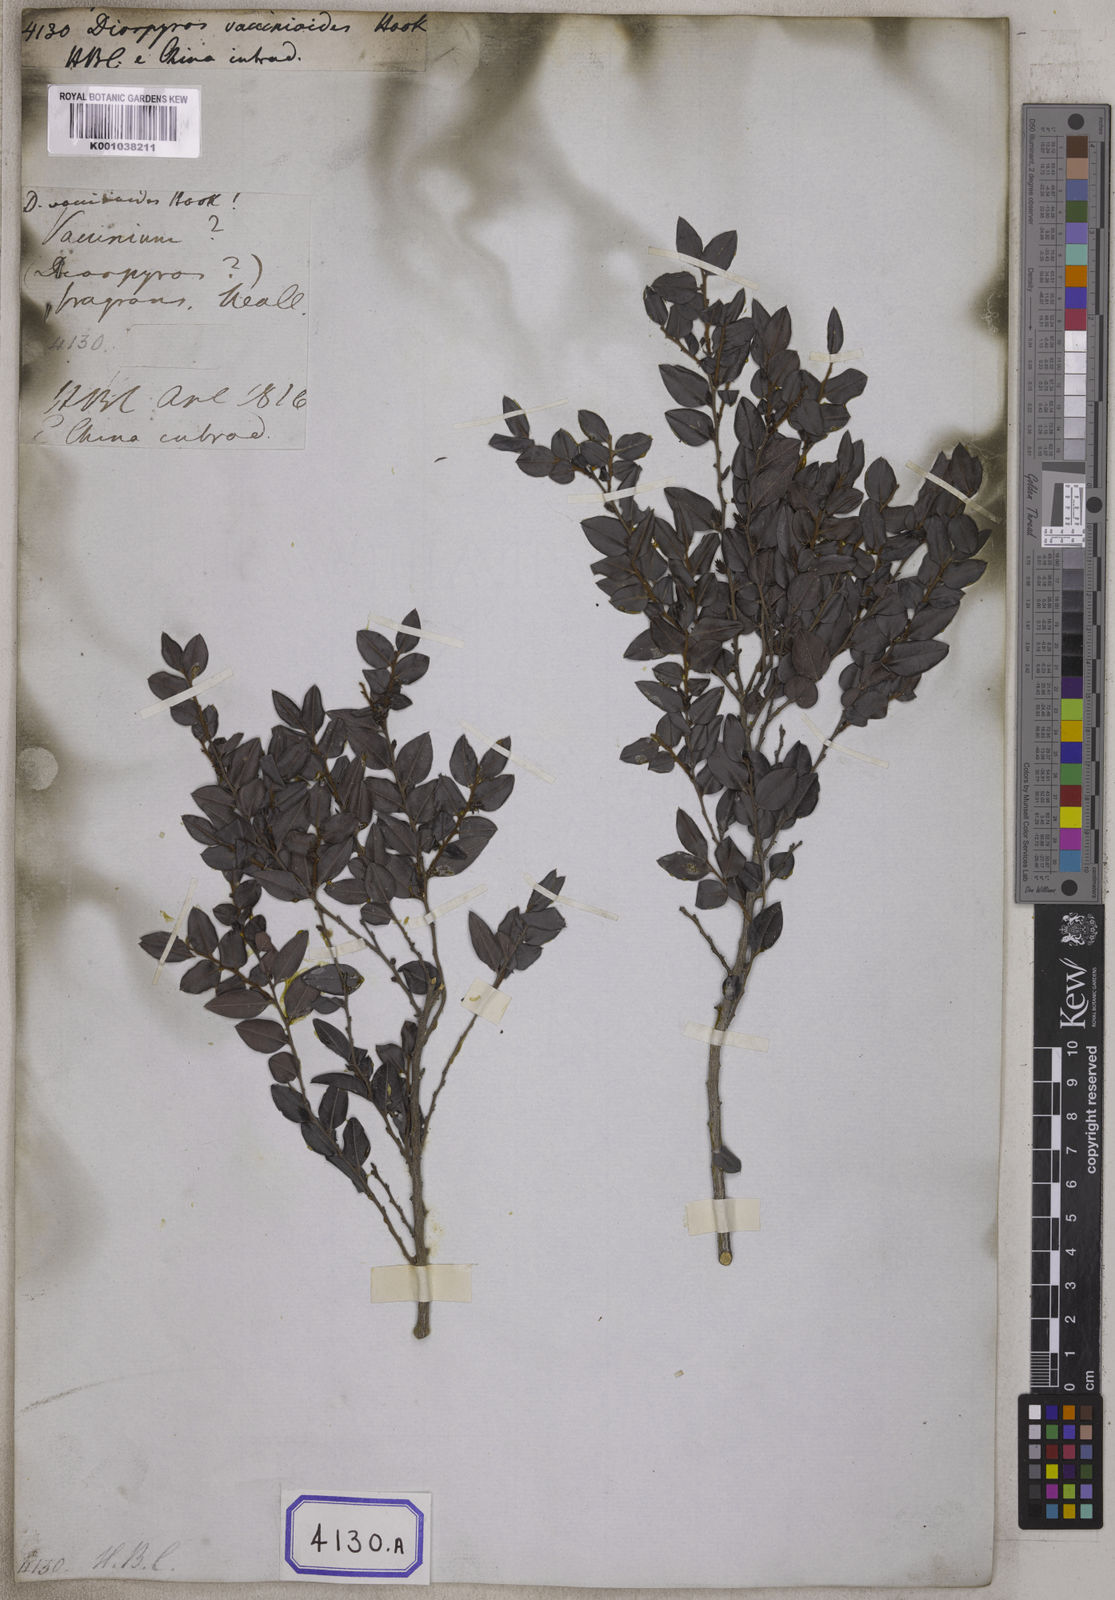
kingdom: Plantae
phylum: Tracheophyta
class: Magnoliopsida
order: Ericales
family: Ebenaceae
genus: Diospyros
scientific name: Diospyros vaccinioides
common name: Small persimmon
